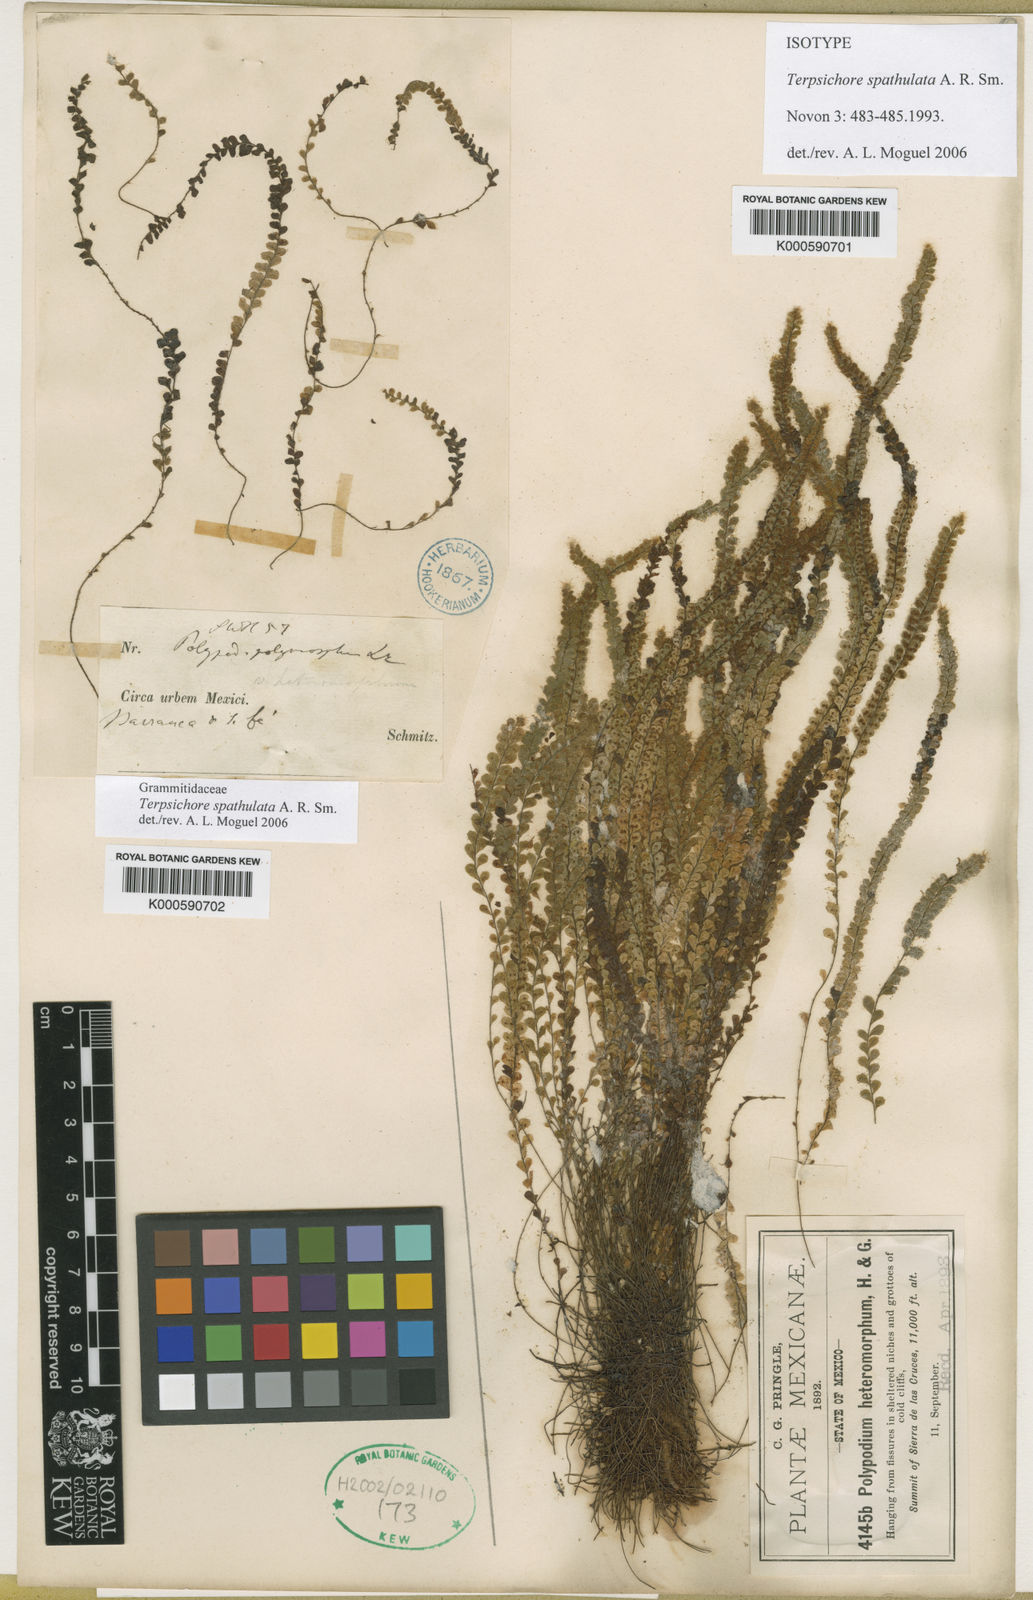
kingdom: Plantae
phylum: Tracheophyta
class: Polypodiopsida
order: Polypodiales
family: Polypodiaceae
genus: Alansmia
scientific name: Alansmia spathulata
